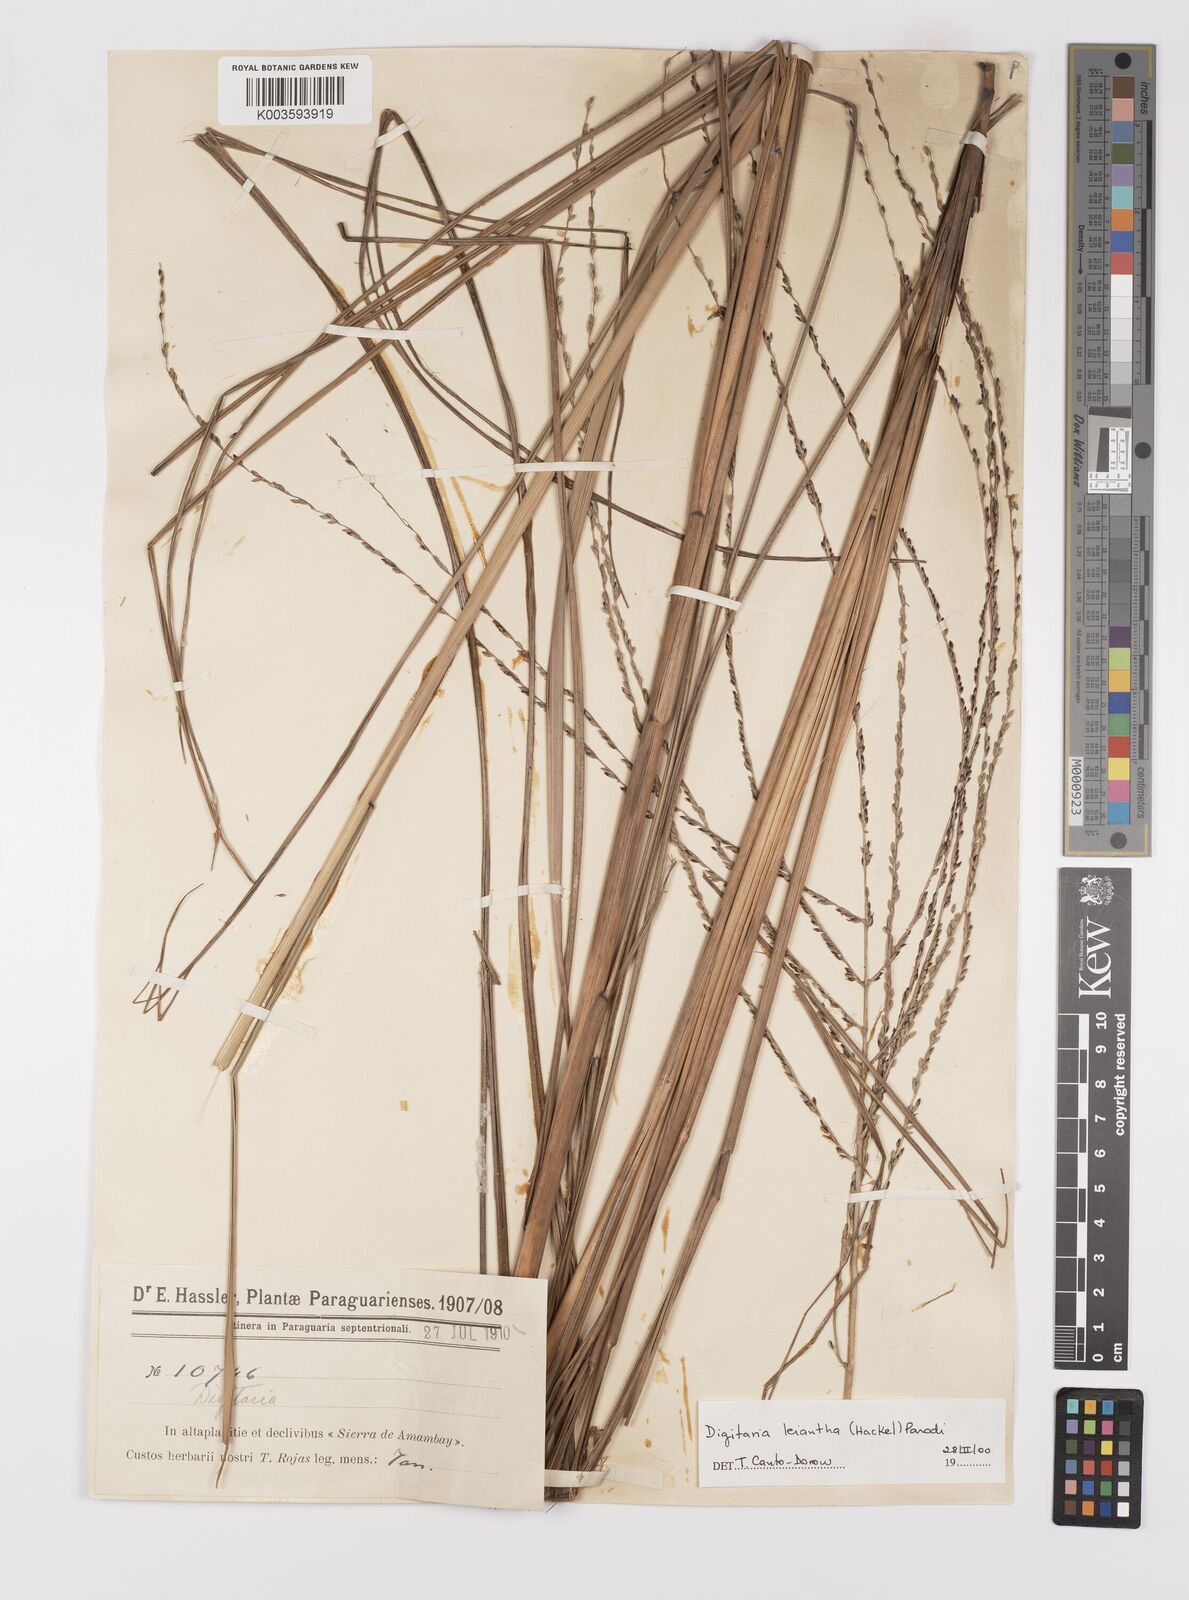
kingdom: Plantae
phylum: Tracheophyta
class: Liliopsida
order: Poales
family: Poaceae
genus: Digitaria
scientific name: Digitaria leiantha
